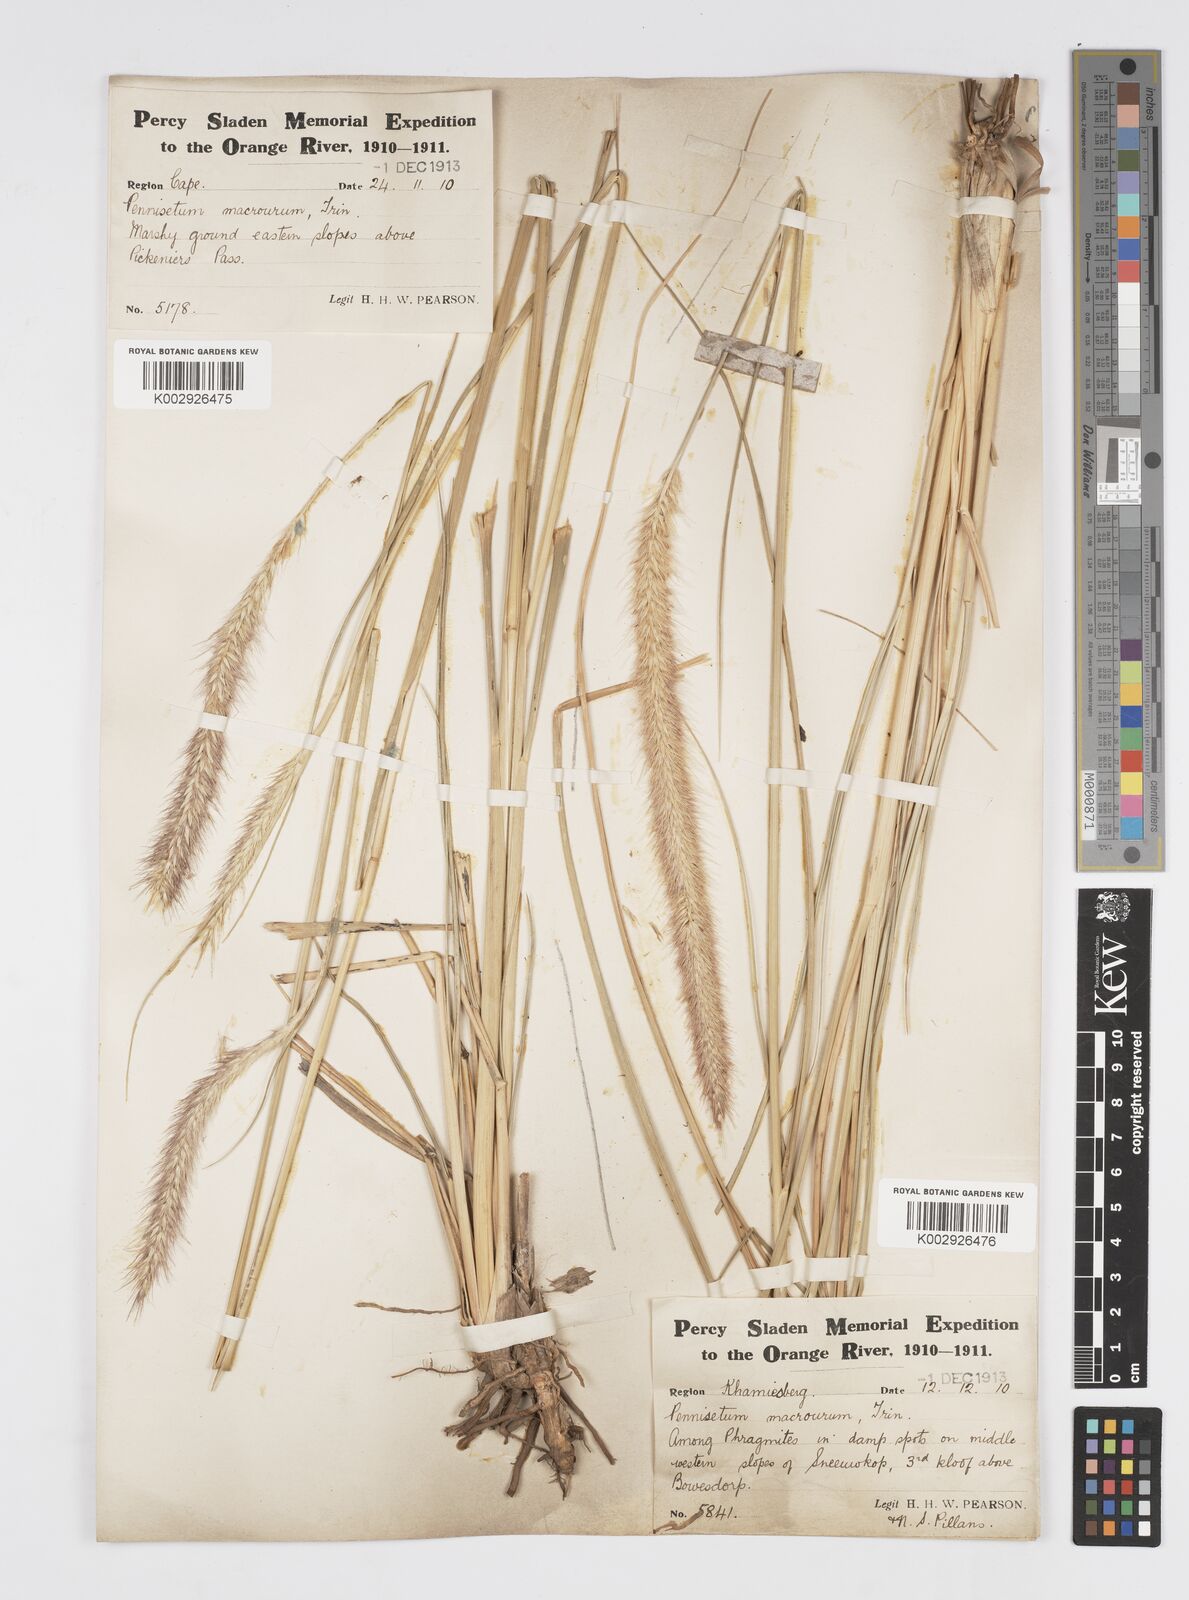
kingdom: Plantae
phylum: Tracheophyta
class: Liliopsida
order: Poales
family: Poaceae
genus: Cenchrus
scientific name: Cenchrus caudatus
